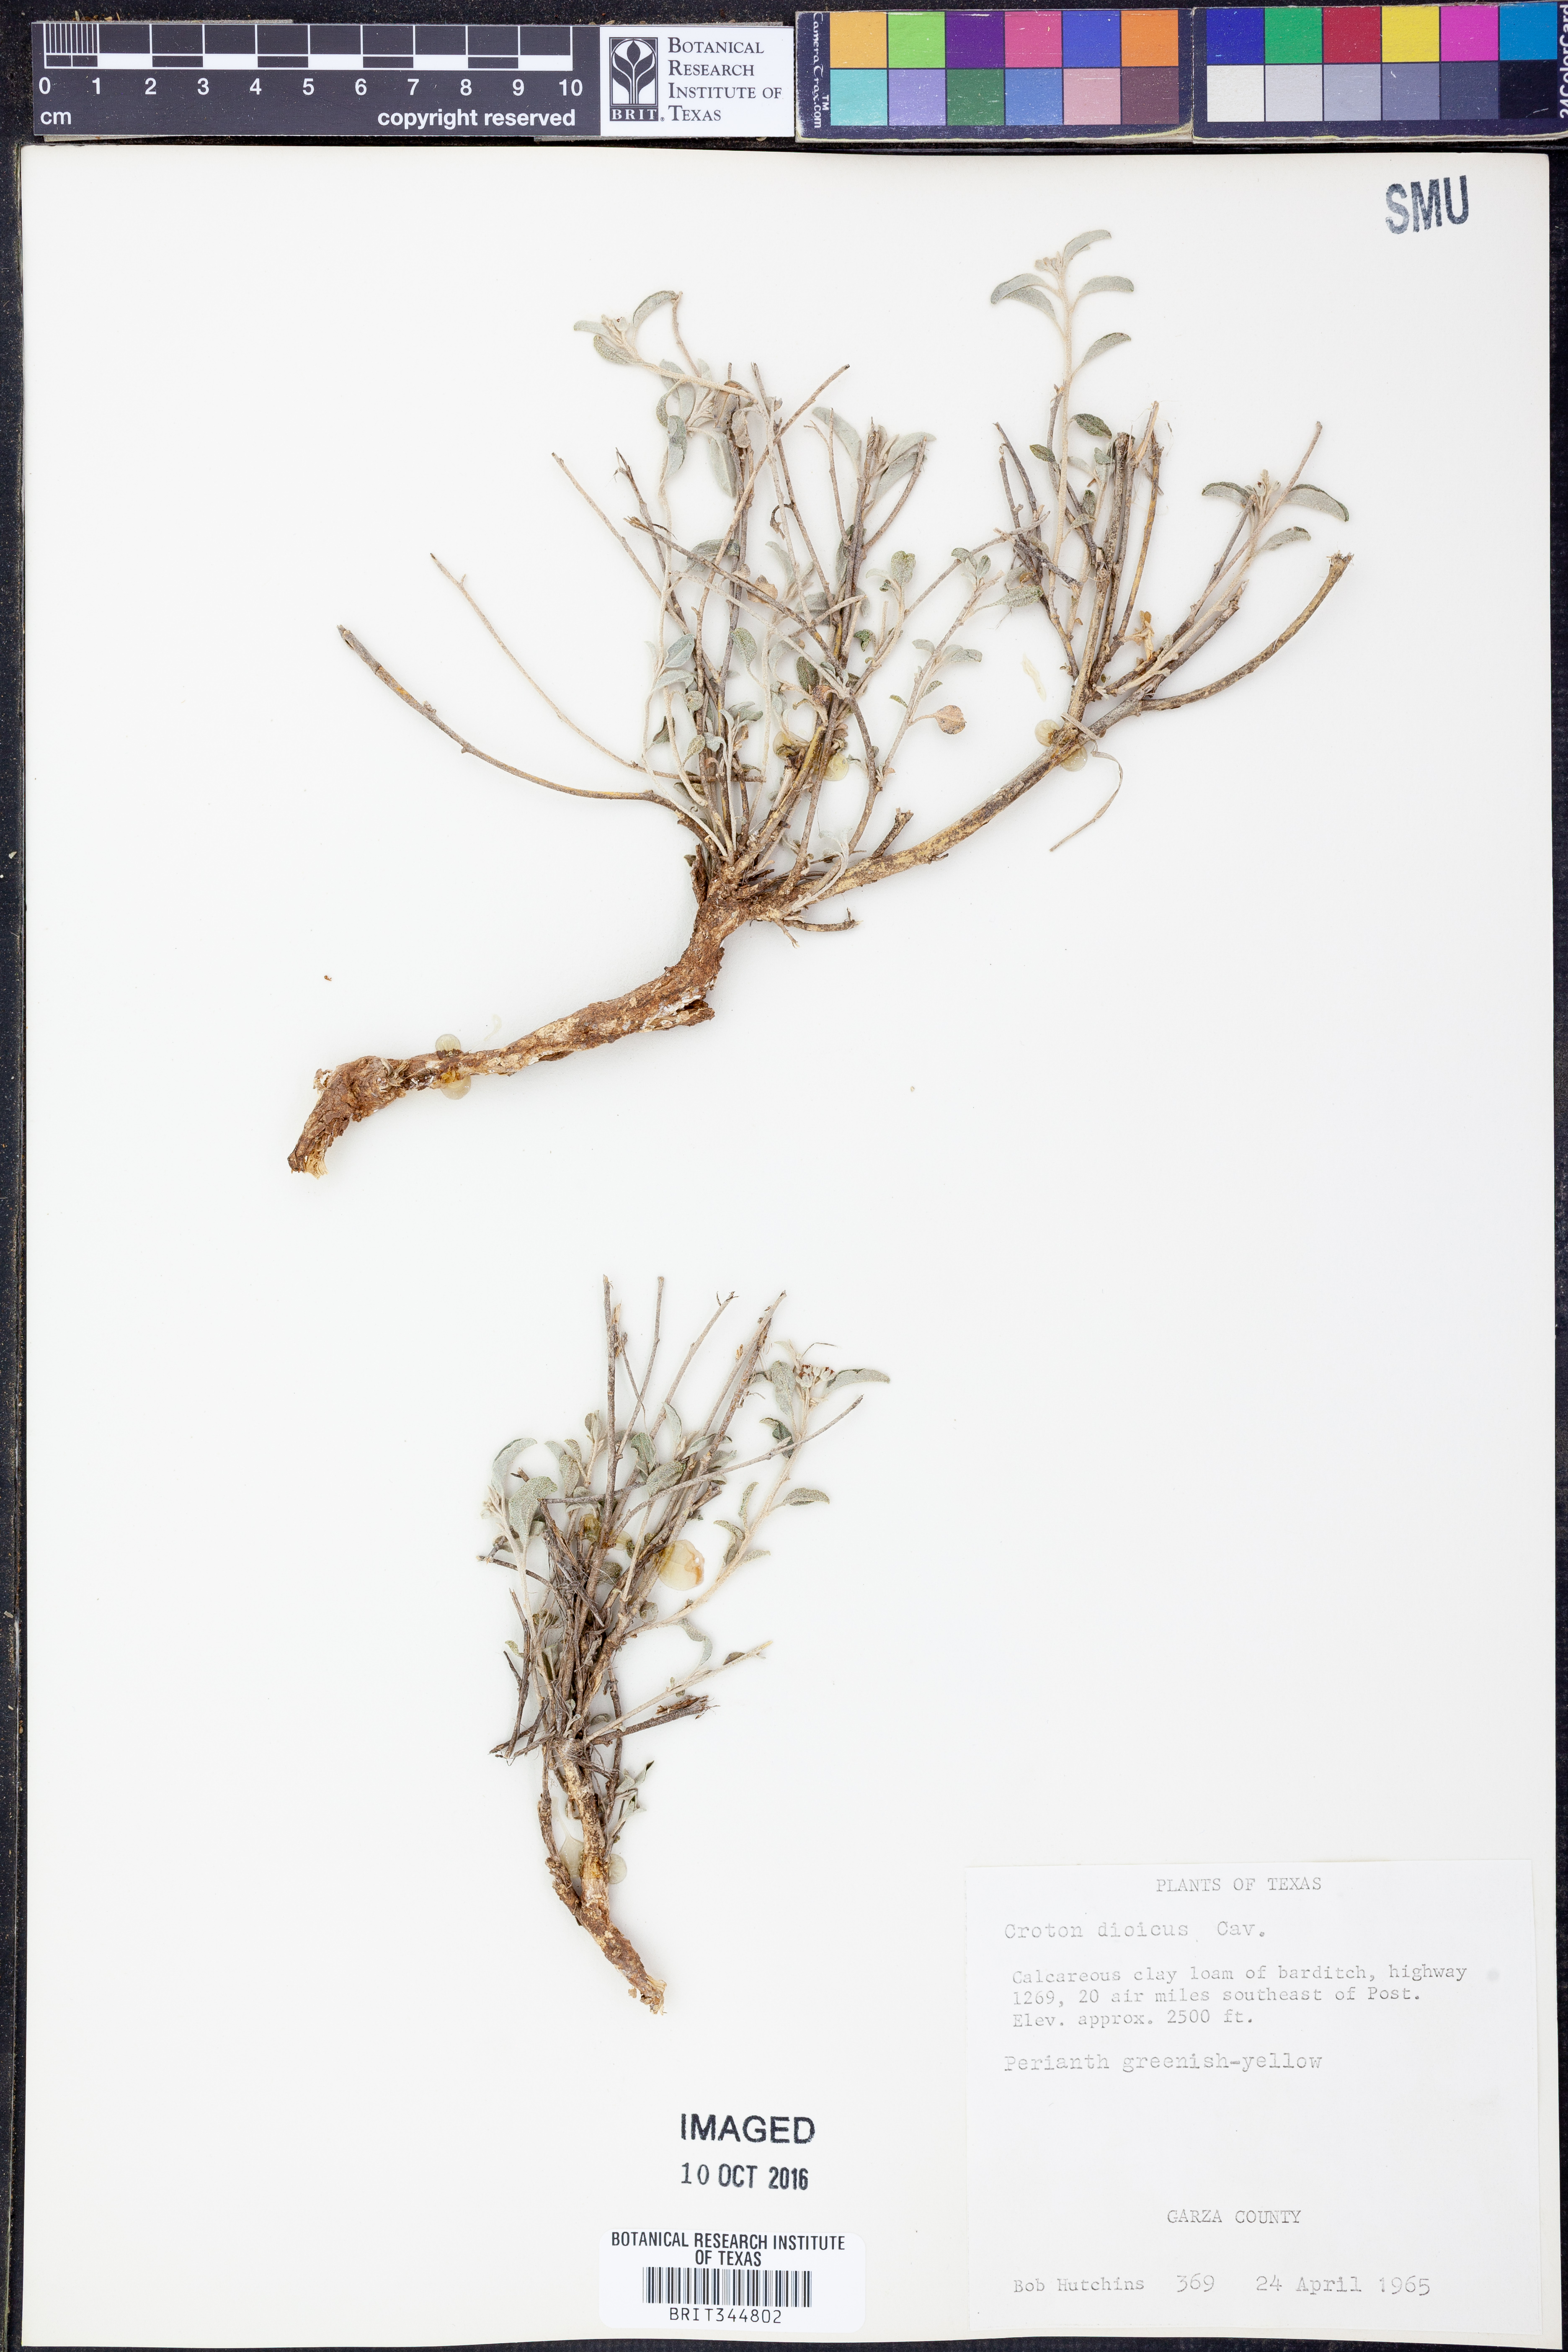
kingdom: Plantae
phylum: Tracheophyta
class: Magnoliopsida
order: Malpighiales
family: Euphorbiaceae
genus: Croton
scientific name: Croton dioicus
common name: Grassland croton
